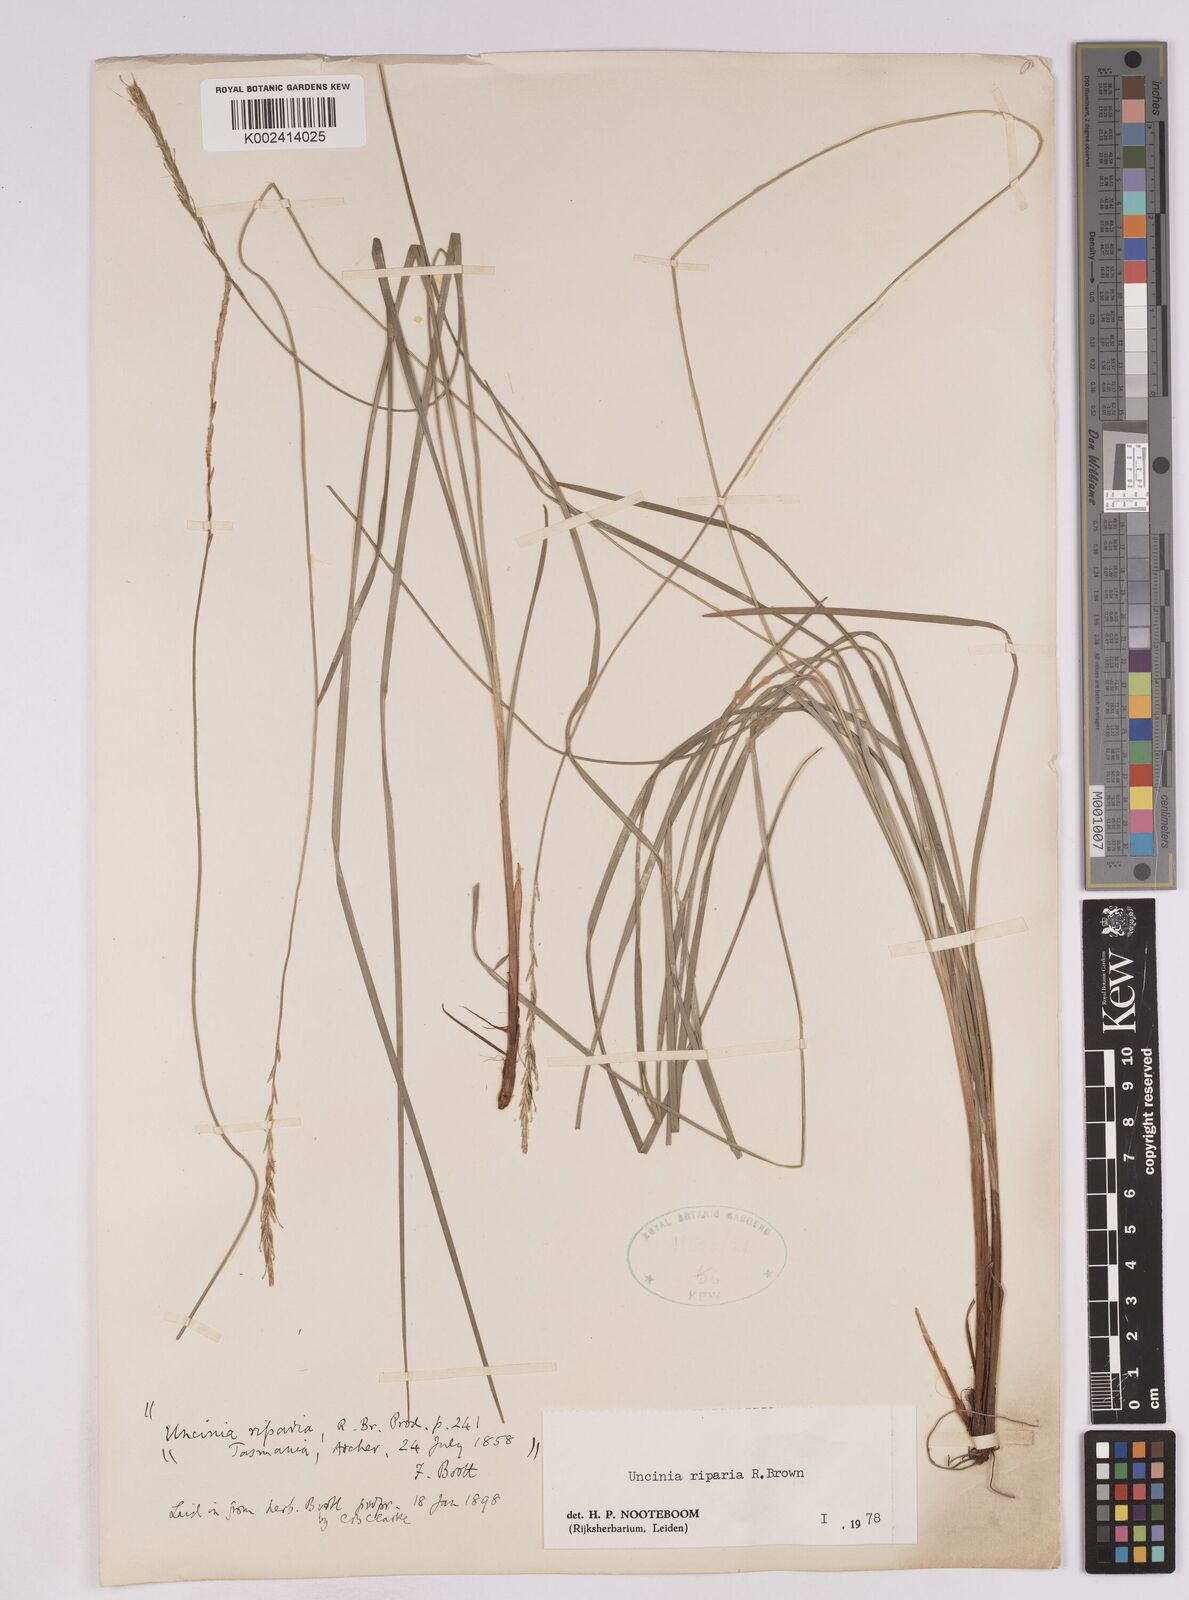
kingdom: Plantae
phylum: Tracheophyta
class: Liliopsida
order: Poales
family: Cyperaceae
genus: Carex
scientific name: Carex umbricola
